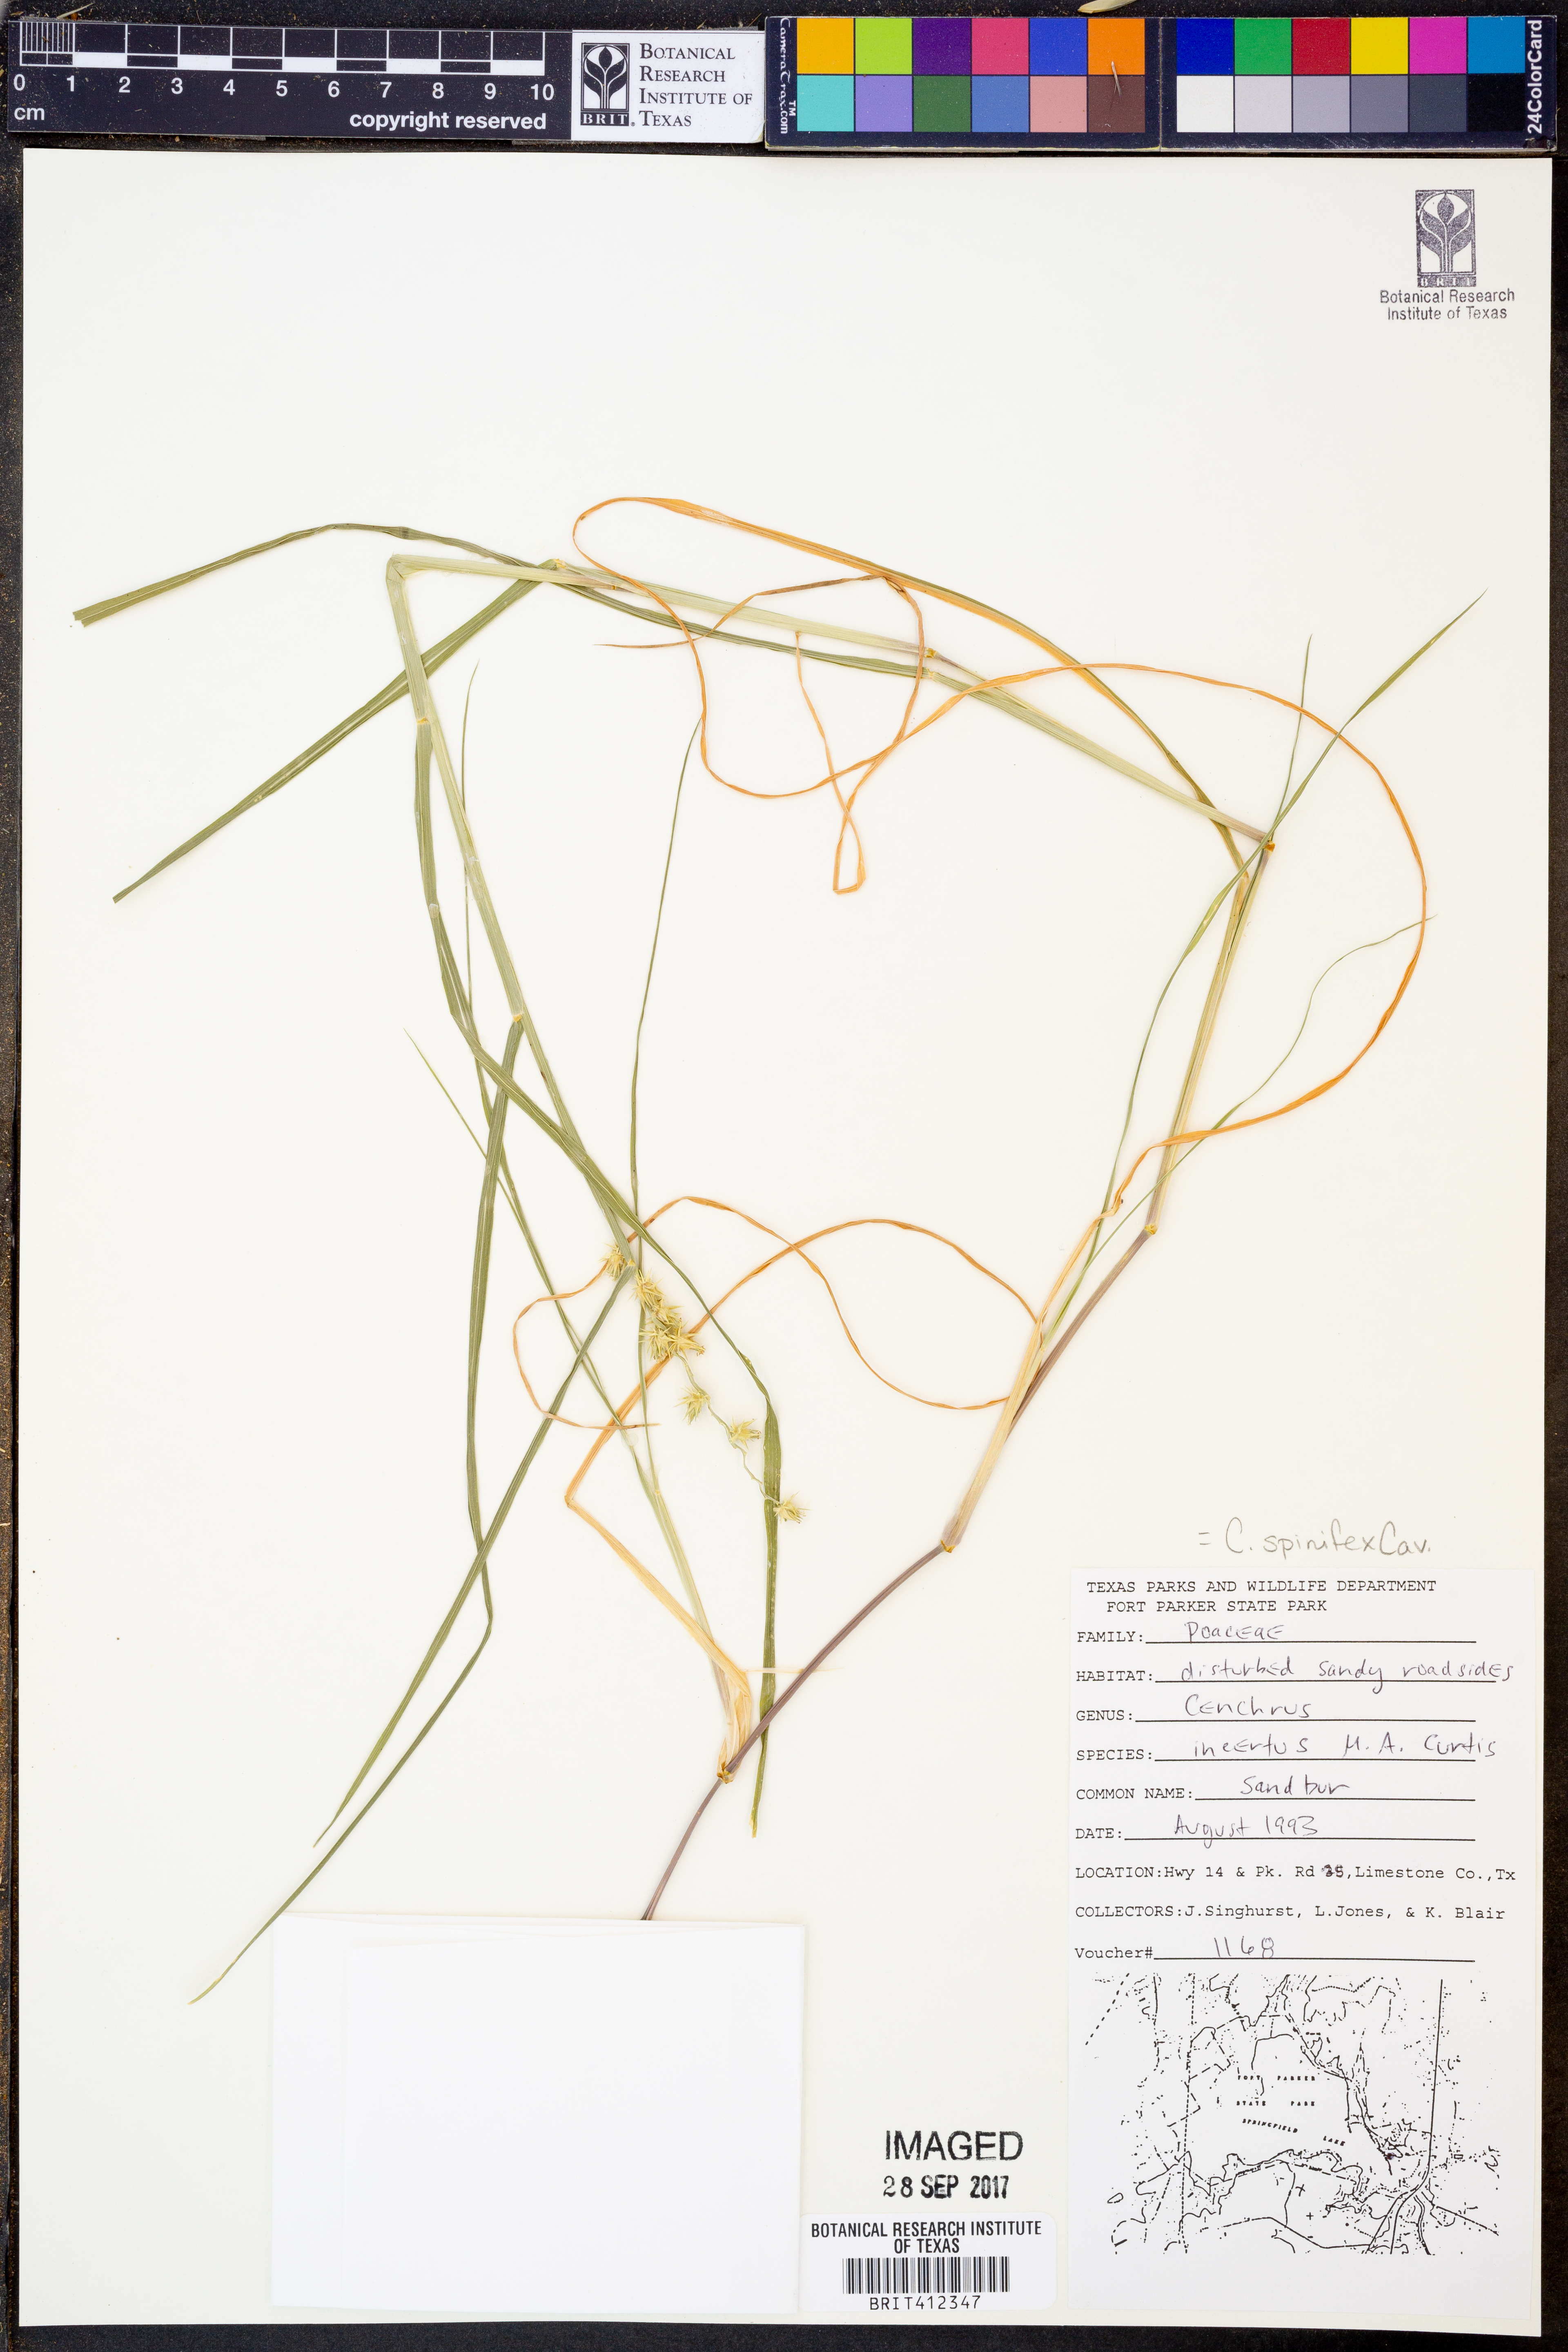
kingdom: Plantae
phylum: Tracheophyta
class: Liliopsida
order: Poales
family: Poaceae
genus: Cenchrus
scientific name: Cenchrus spinifex
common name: Coast sandbur
